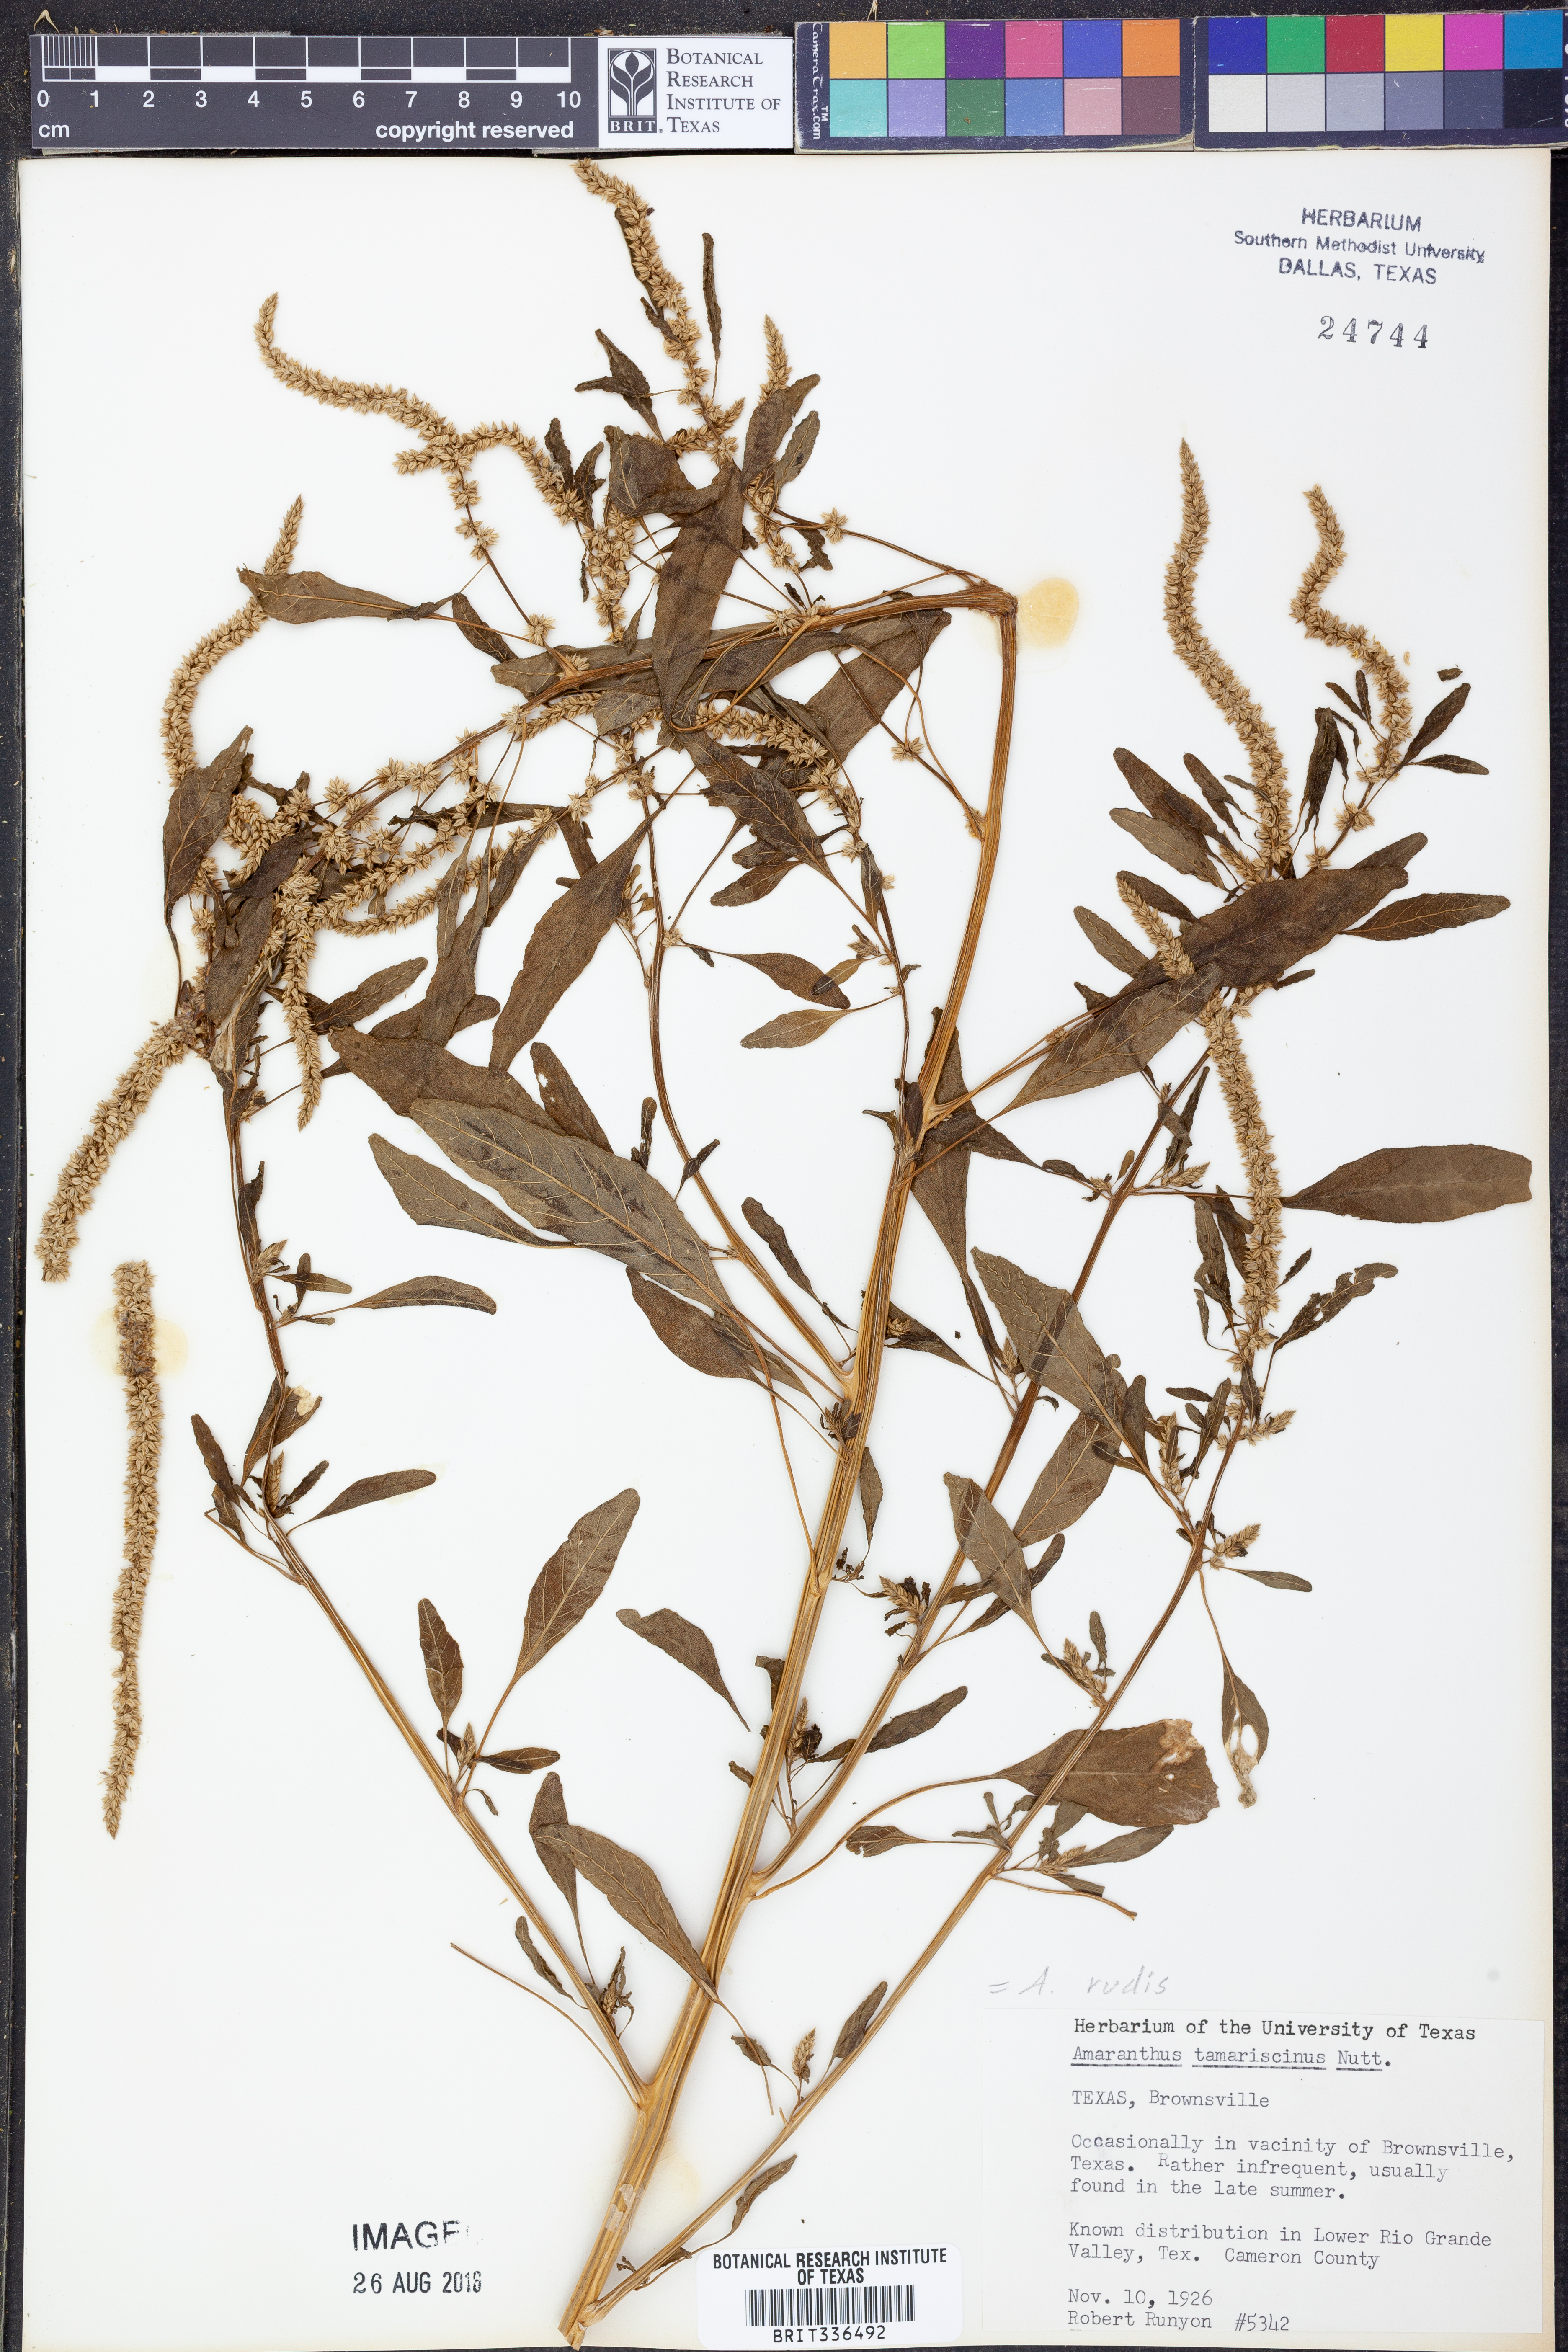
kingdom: Plantae
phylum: Tracheophyta
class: Magnoliopsida
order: Caryophyllales
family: Amaranthaceae
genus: Amaranthus
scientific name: Amaranthus tuberculatus
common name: Rough-fruit amaranth
